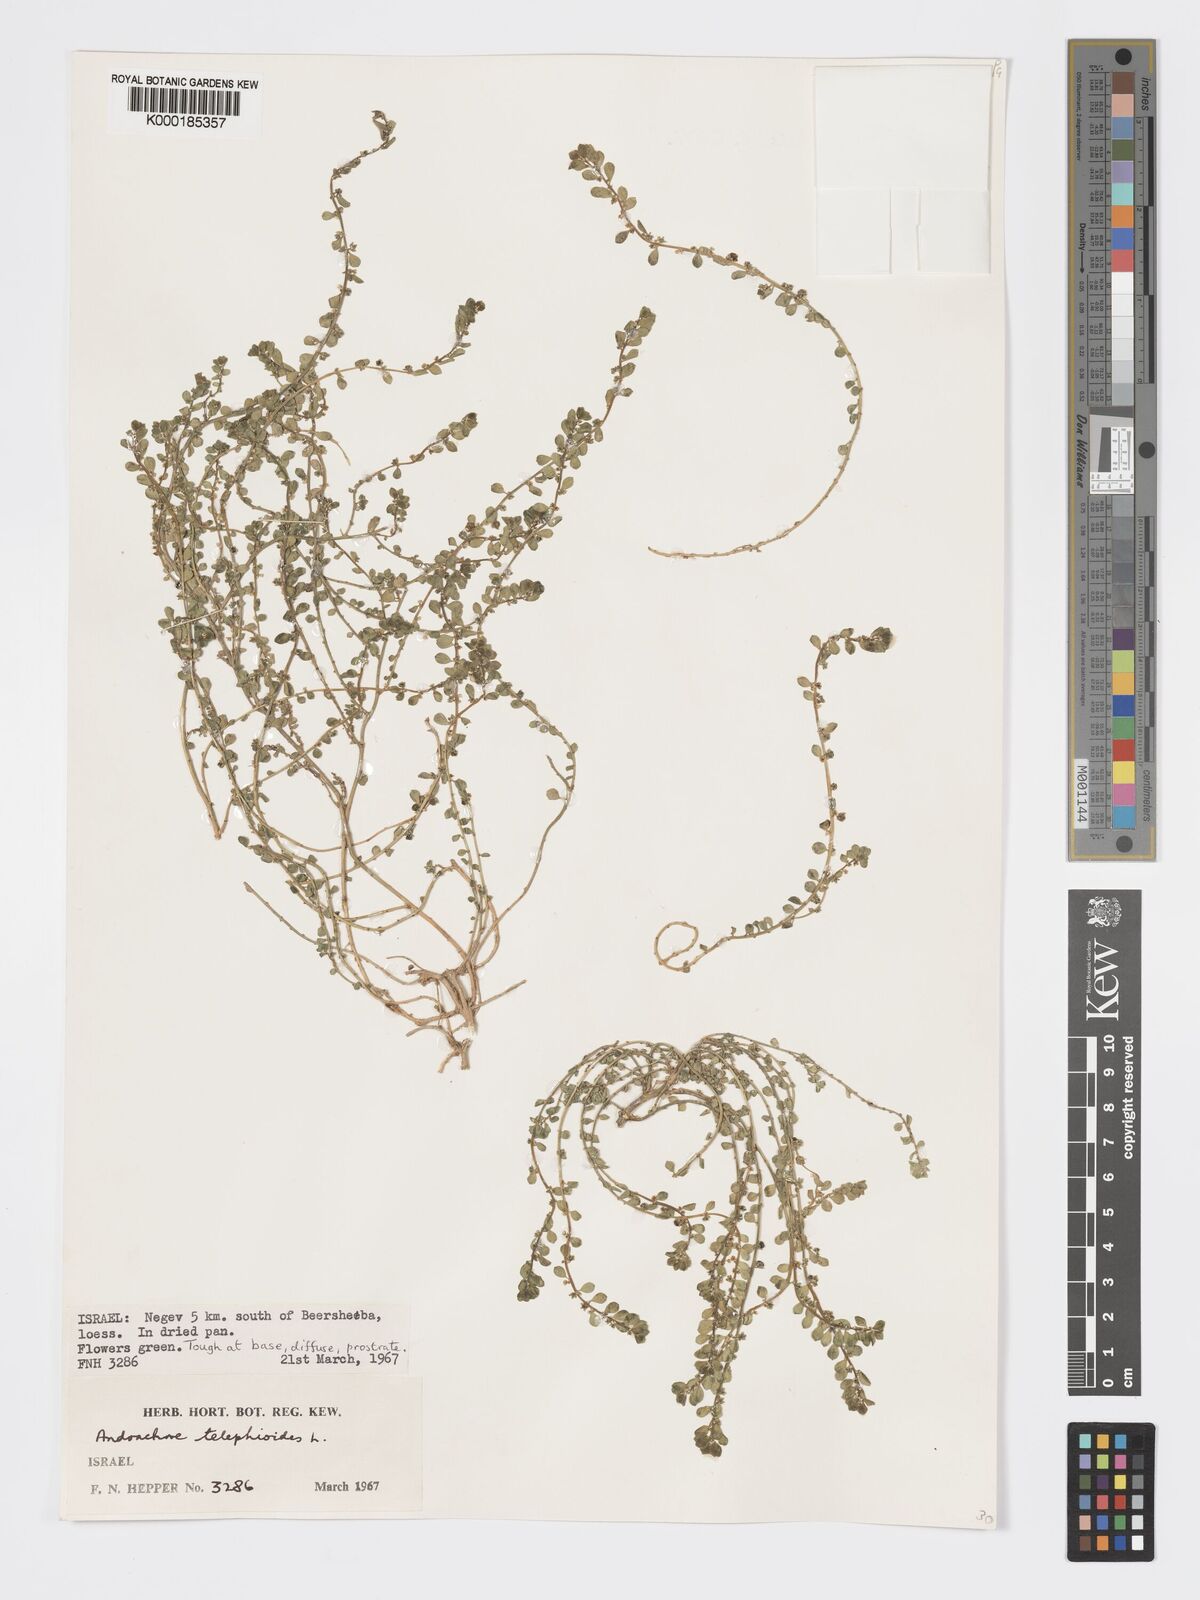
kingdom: Plantae
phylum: Tracheophyta
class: Magnoliopsida
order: Malpighiales
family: Phyllanthaceae
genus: Andrachne
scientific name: Andrachne telephioides
